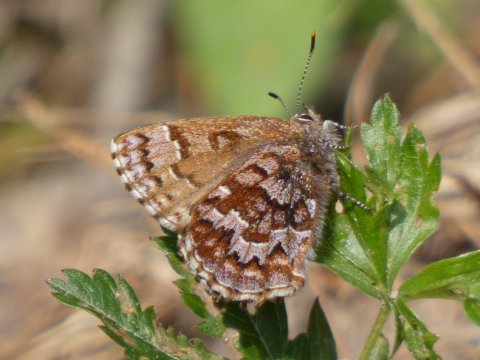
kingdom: Animalia
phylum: Arthropoda
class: Insecta
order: Lepidoptera
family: Lycaenidae
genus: Incisalia
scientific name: Incisalia niphon
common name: Eastern Pine Elfin
